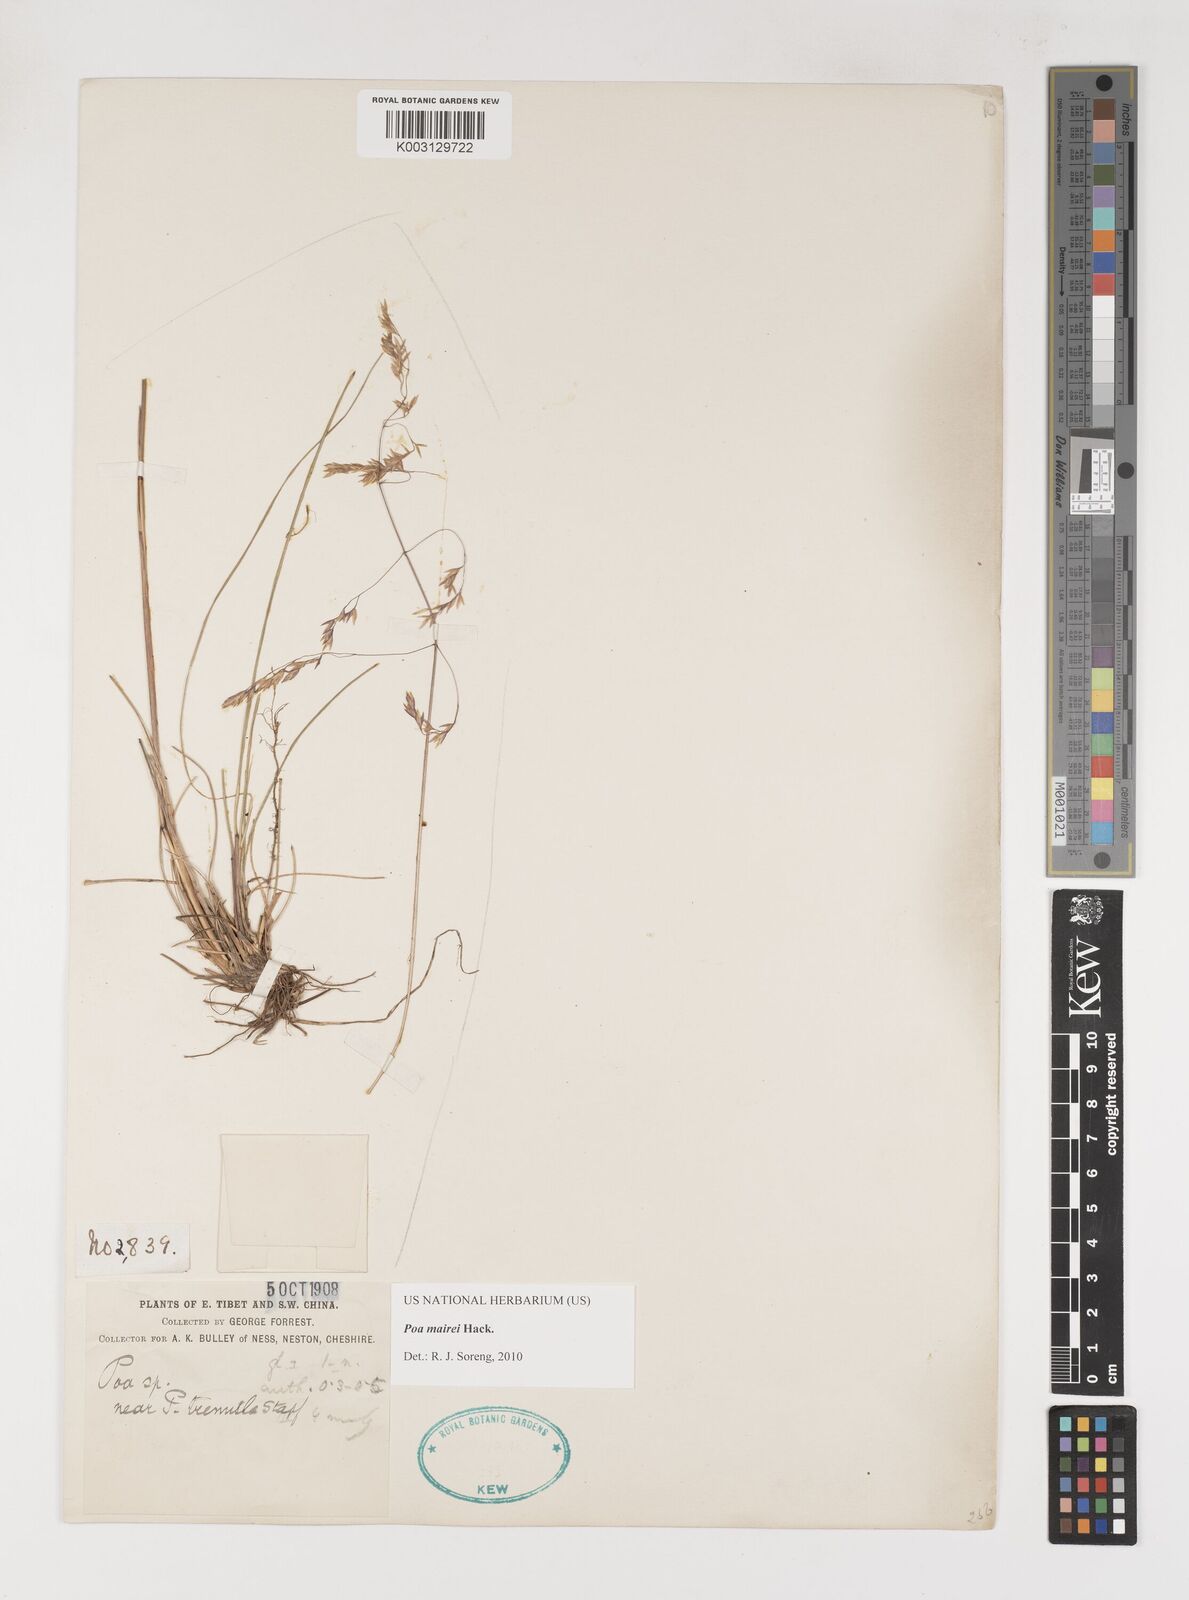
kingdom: Plantae
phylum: Tracheophyta
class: Liliopsida
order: Poales
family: Poaceae
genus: Poa
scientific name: Poa mairei
